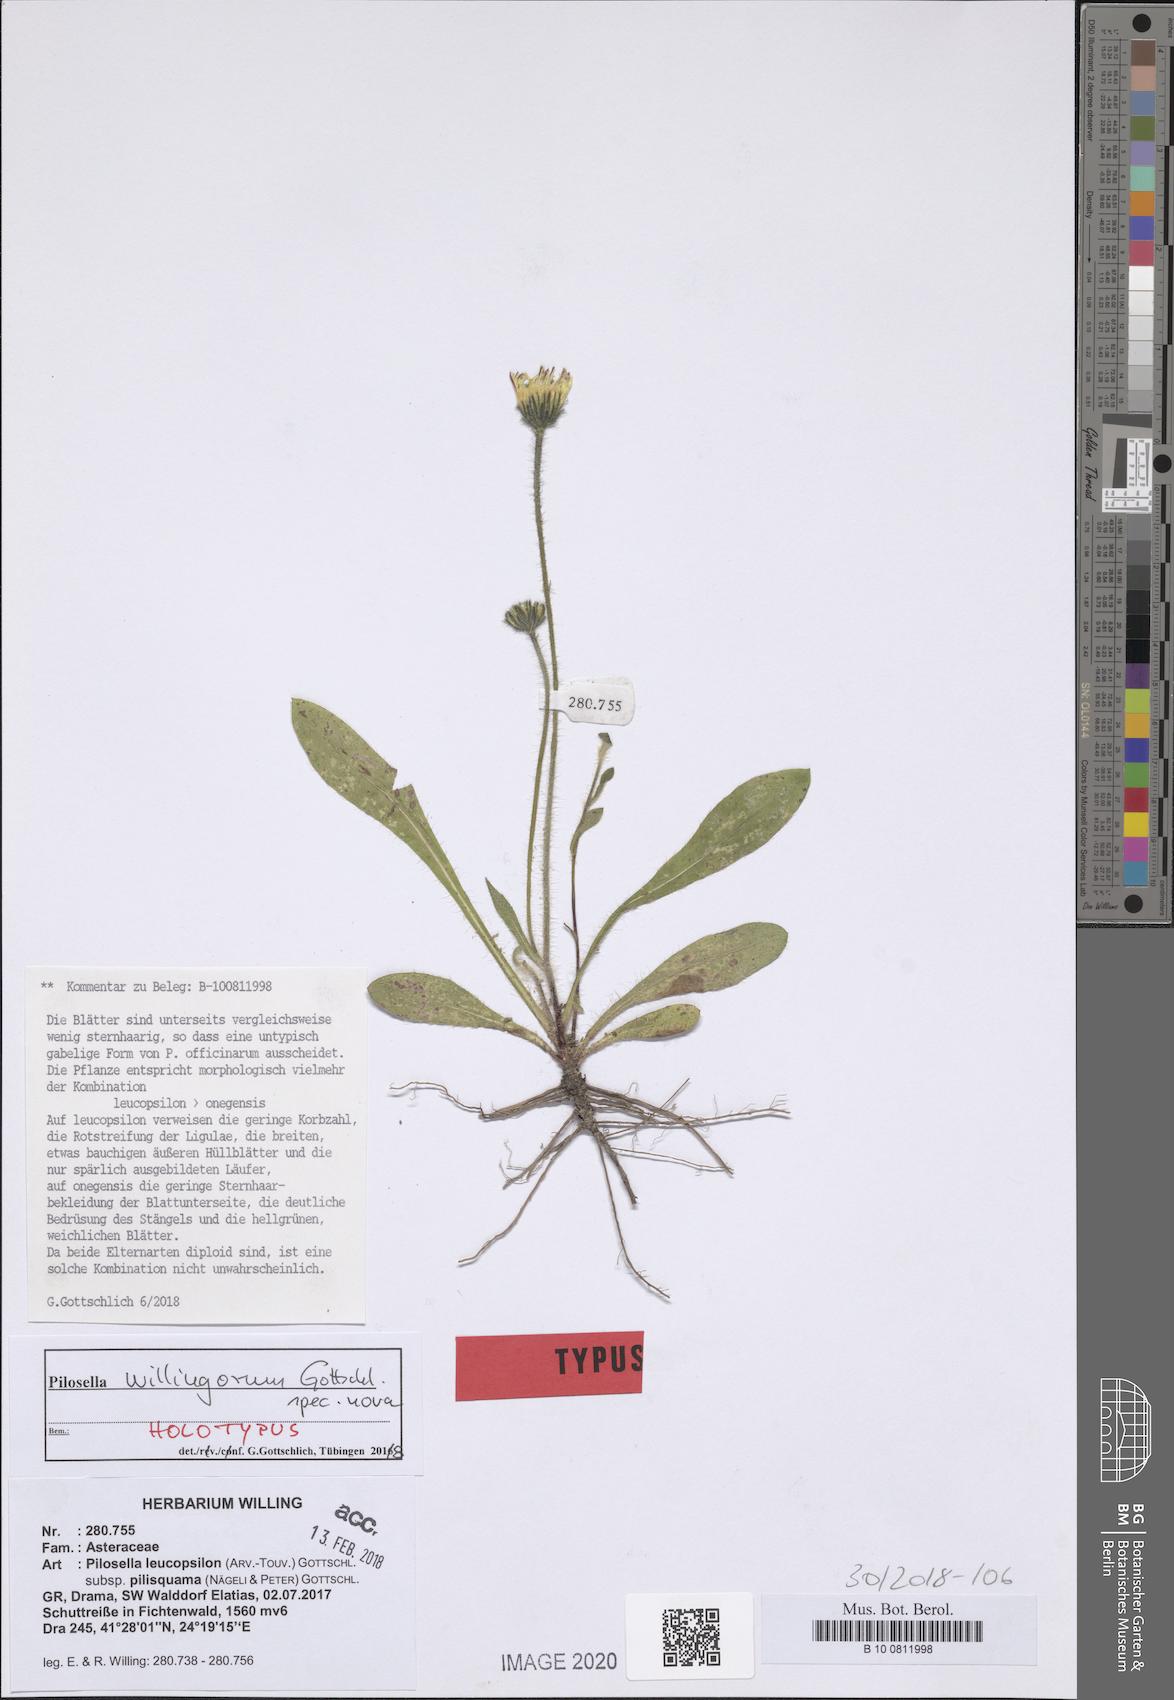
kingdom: Plantae
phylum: Tracheophyta
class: Magnoliopsida
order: Asterales
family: Asteraceae
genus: Pilosella
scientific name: Pilosella willingorum
